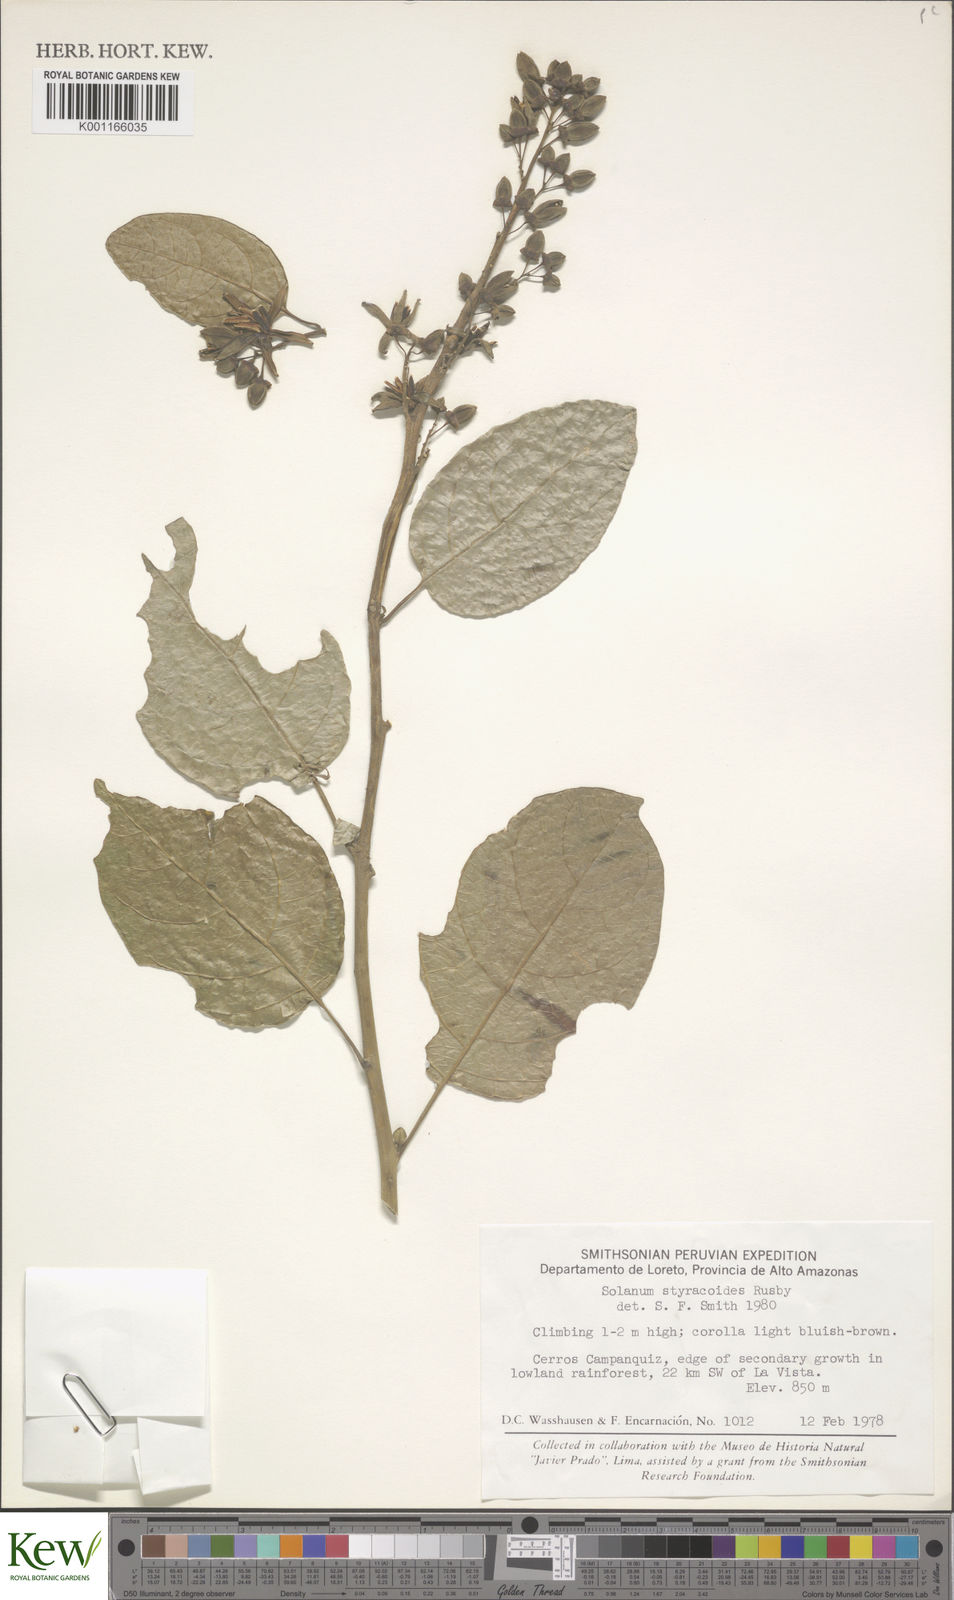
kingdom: Plantae
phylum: Tracheophyta
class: Magnoliopsida
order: Solanales
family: Solanaceae
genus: Solanum
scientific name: Solanum uncinellum
